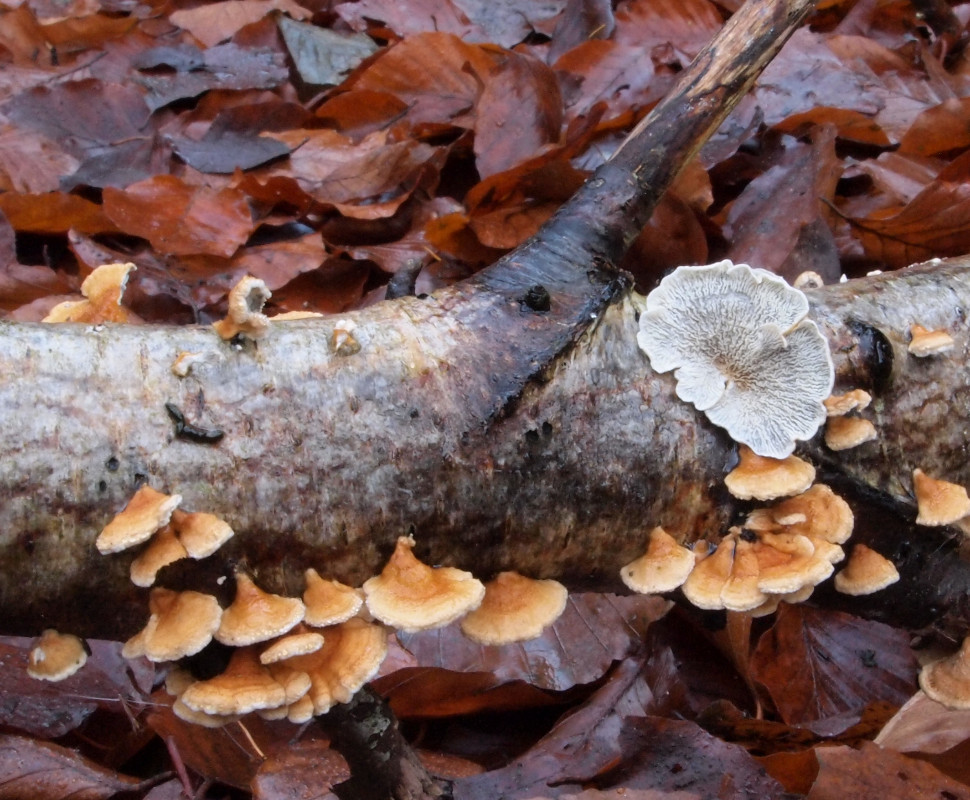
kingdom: Fungi
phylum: Basidiomycota
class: Agaricomycetes
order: Amylocorticiales
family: Amylocorticiaceae
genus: Plicaturopsis
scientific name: Plicaturopsis crispa
